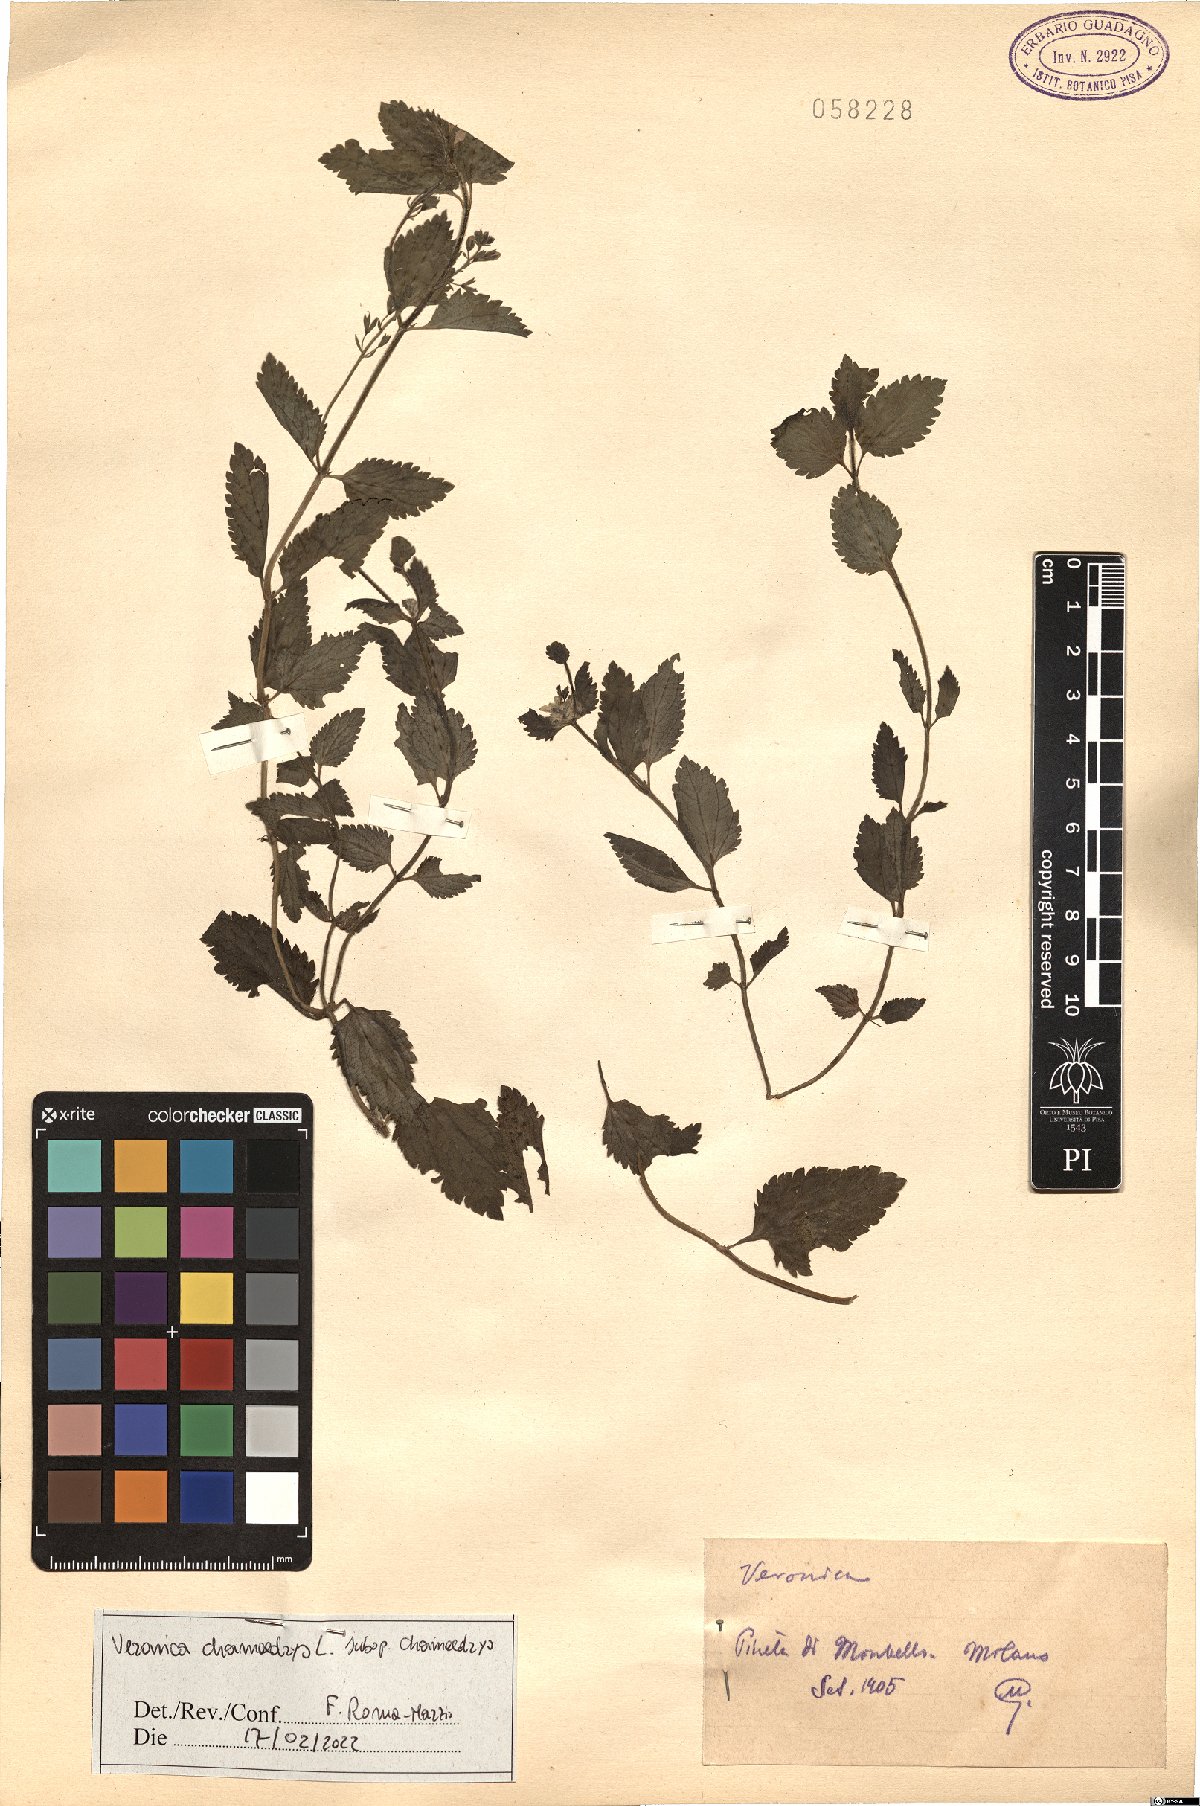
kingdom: Plantae
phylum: Tracheophyta
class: Magnoliopsida
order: Lamiales
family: Plantaginaceae
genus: Veronica
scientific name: Veronica chamaedrys
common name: Germander speedwell
